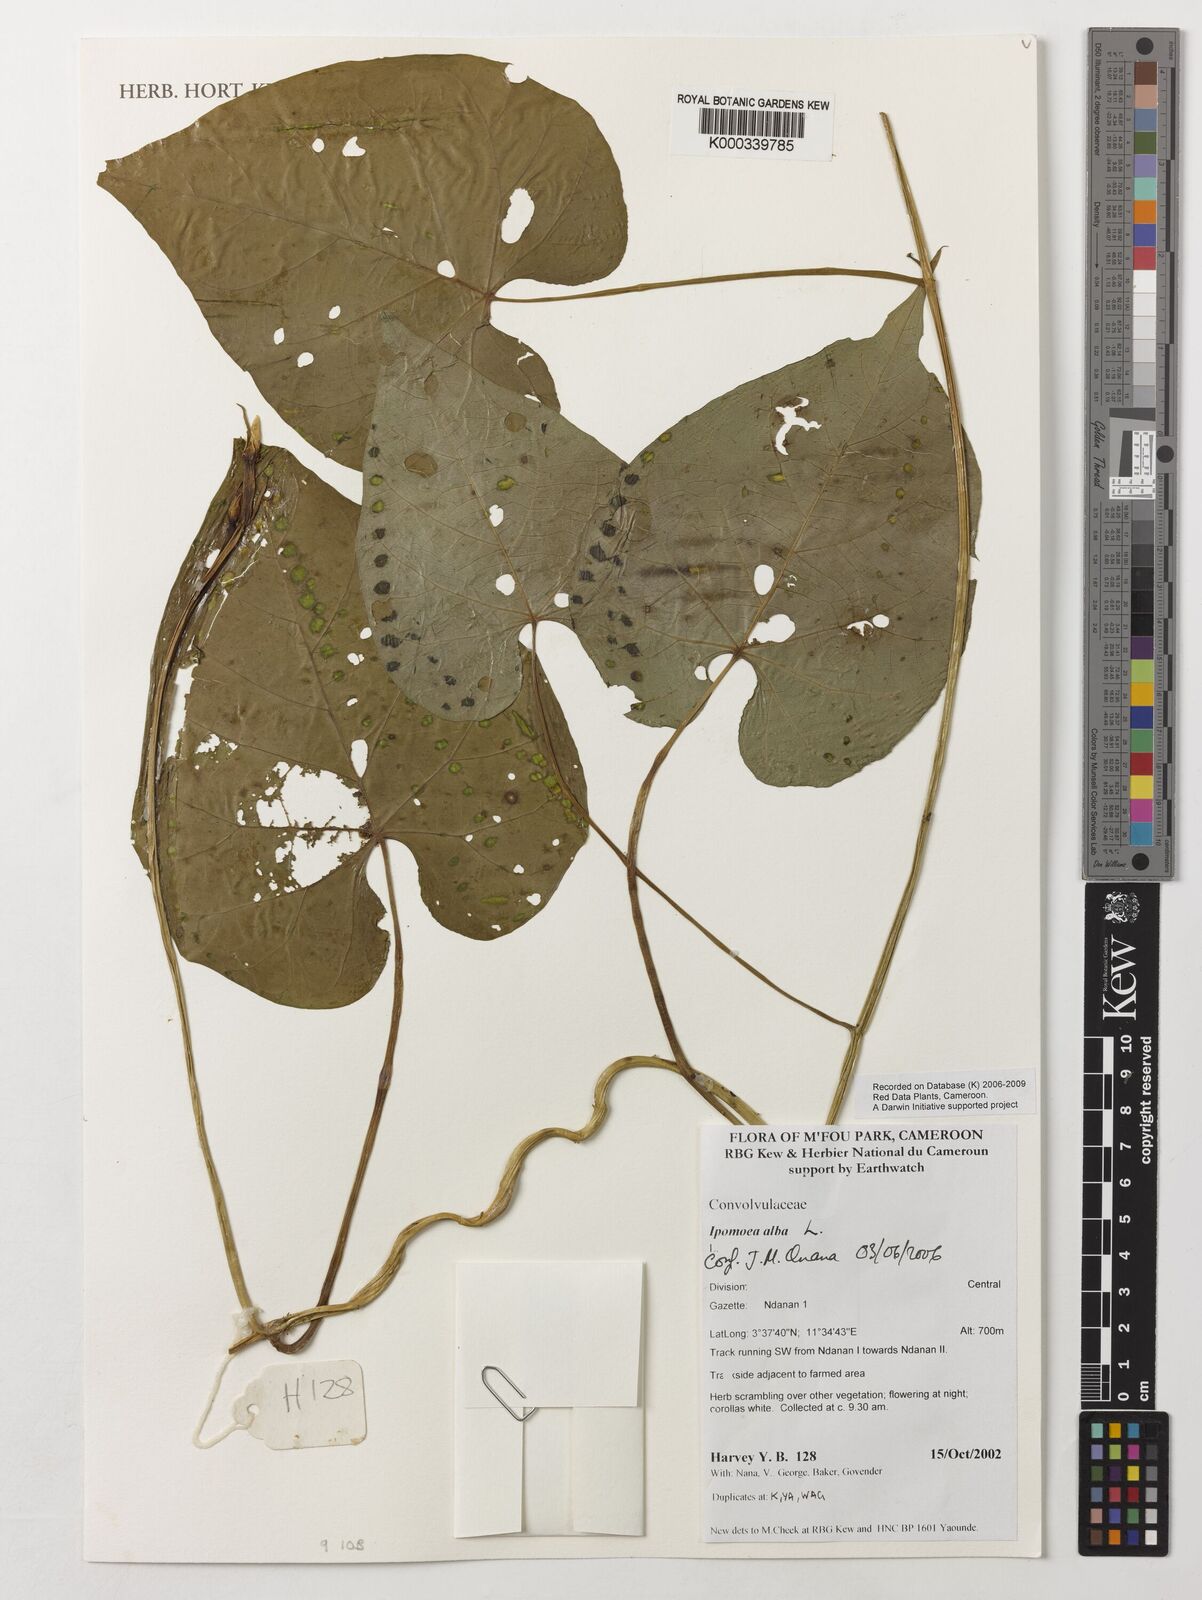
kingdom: Plantae
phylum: Tracheophyta
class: Magnoliopsida
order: Solanales
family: Convolvulaceae
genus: Ipomoea
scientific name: Ipomoea alba
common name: Moonflower
